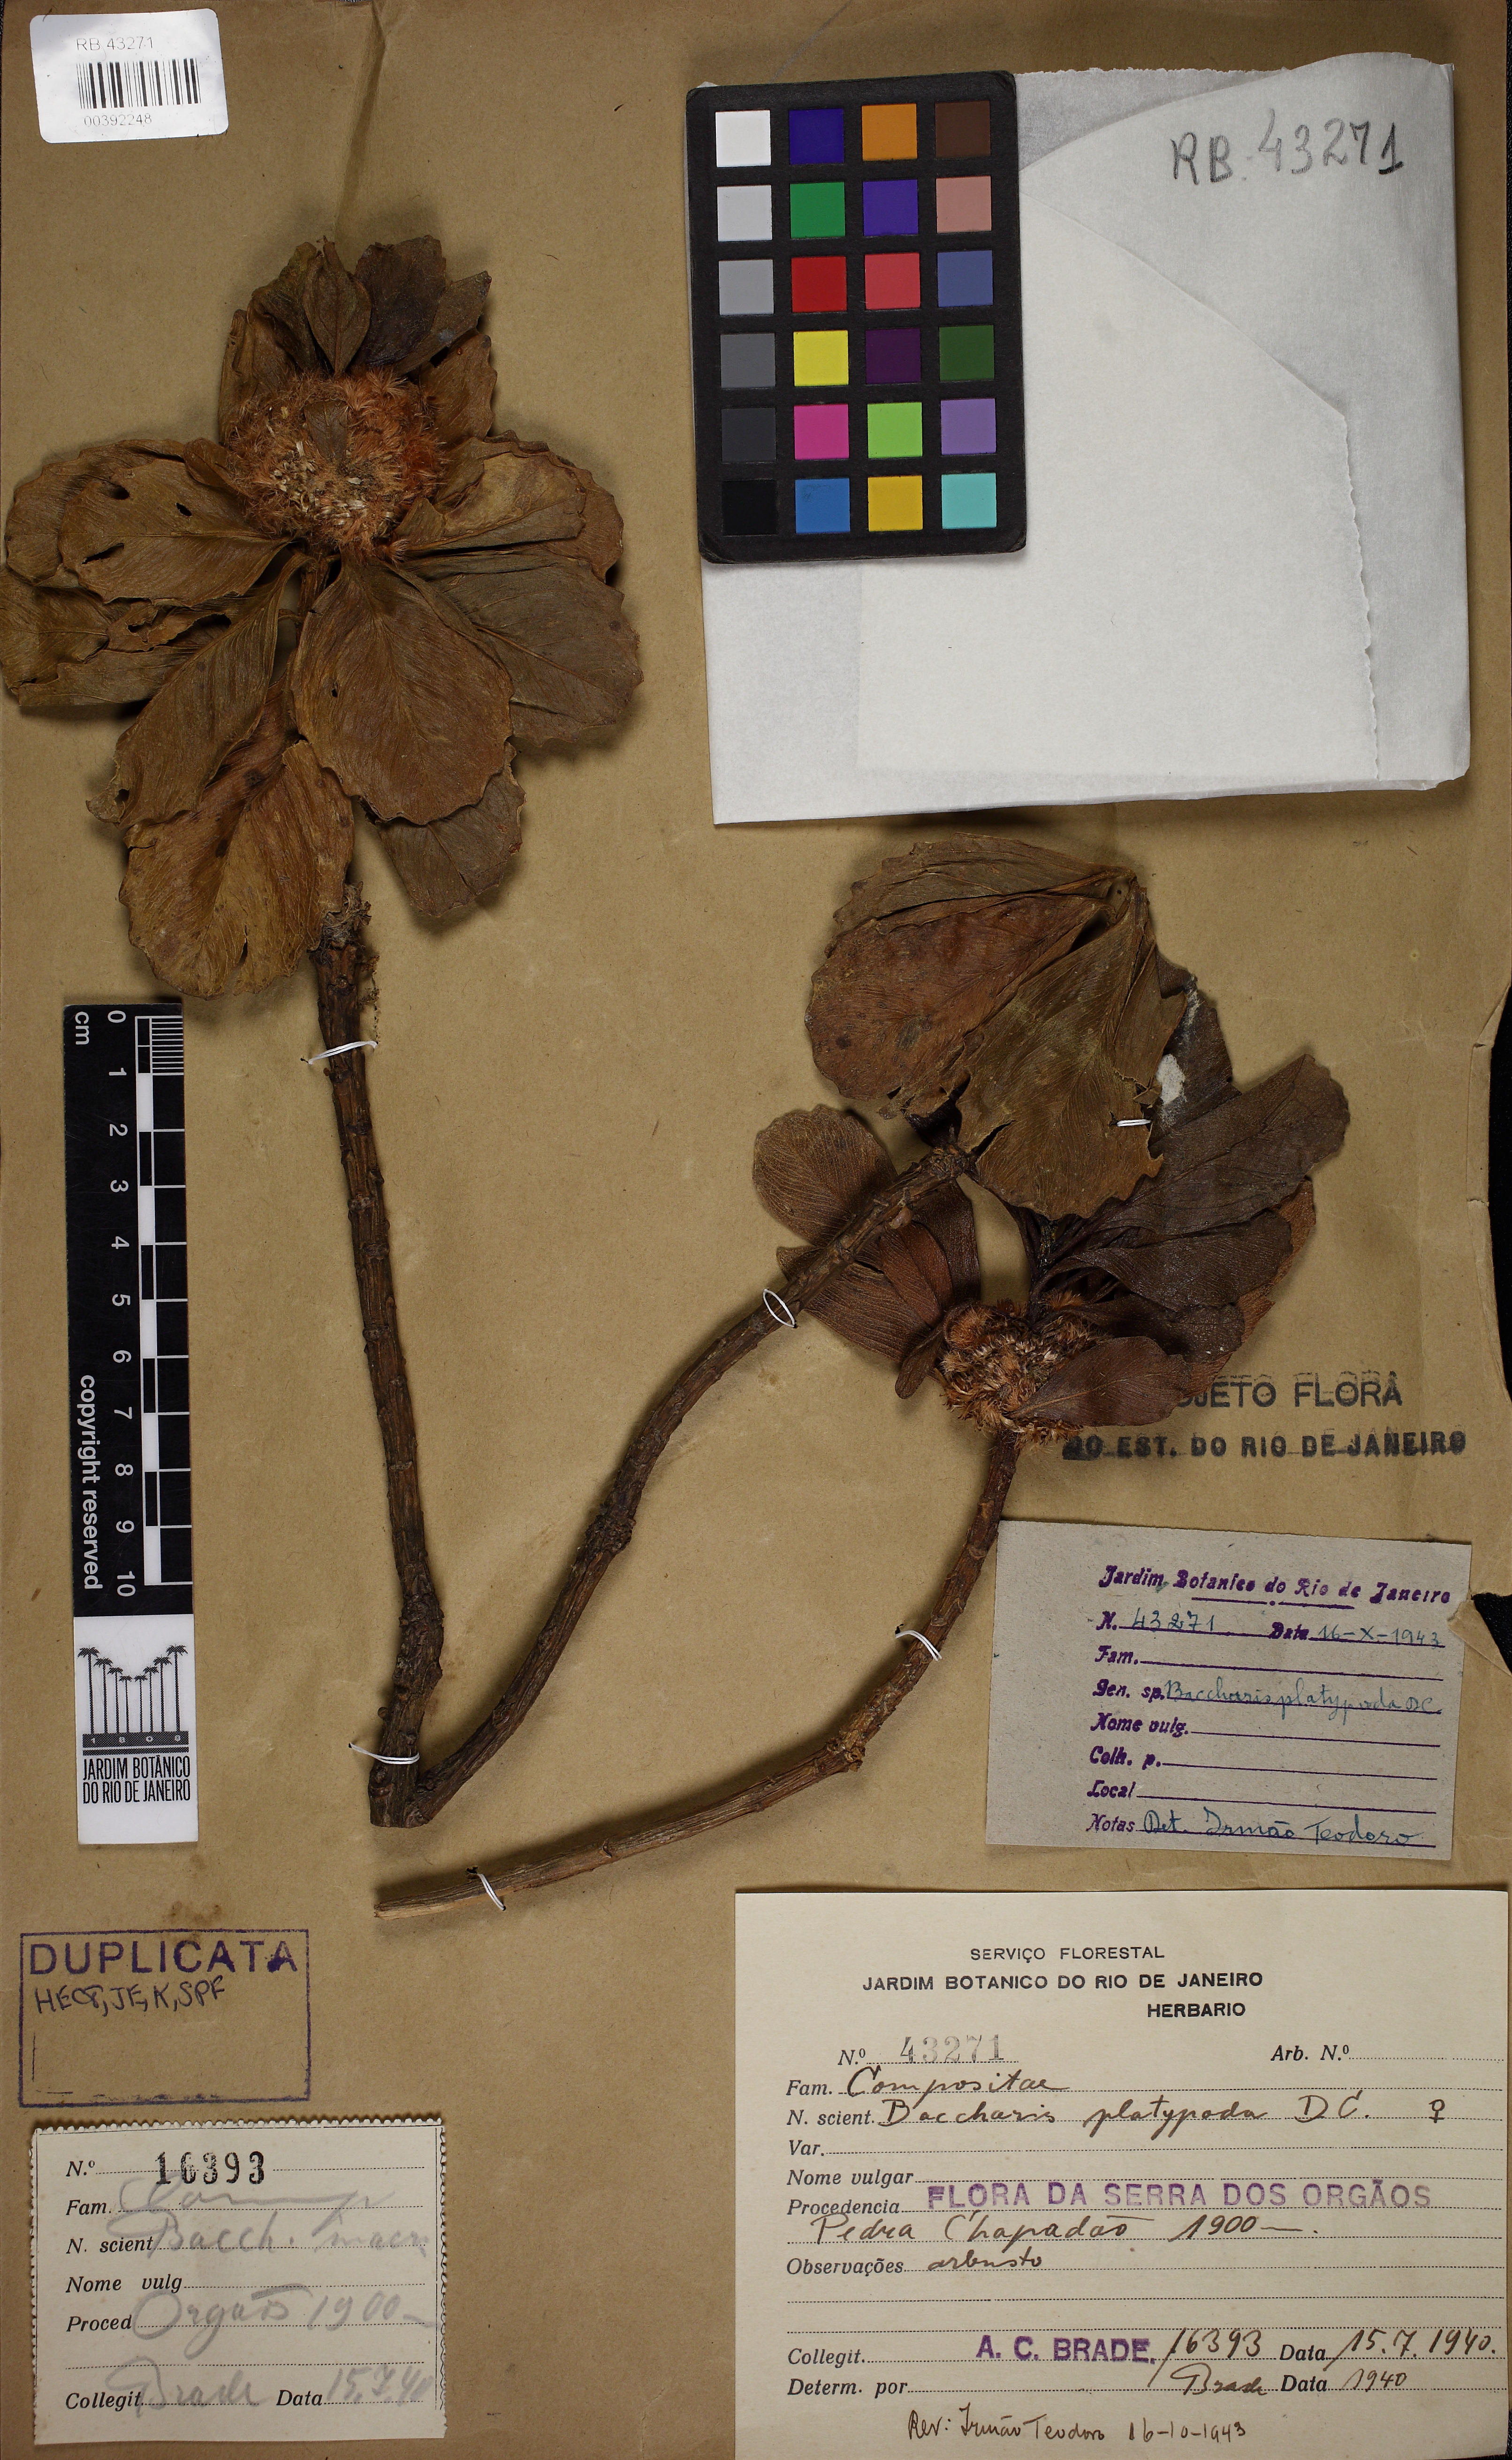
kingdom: Plantae
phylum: Tracheophyta
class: Magnoliopsida
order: Asterales
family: Asteraceae
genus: Baccharis
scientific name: Baccharis platypoda
